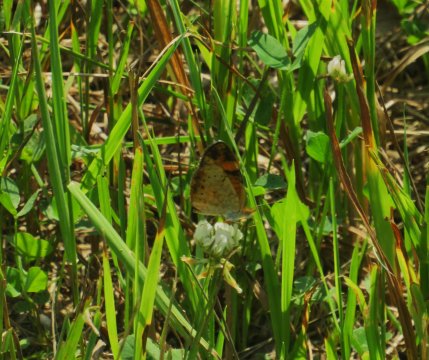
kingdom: Animalia
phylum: Arthropoda
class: Insecta
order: Lepidoptera
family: Nymphalidae
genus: Phyciodes
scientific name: Phyciodes tharos
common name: Pearl Crescent
